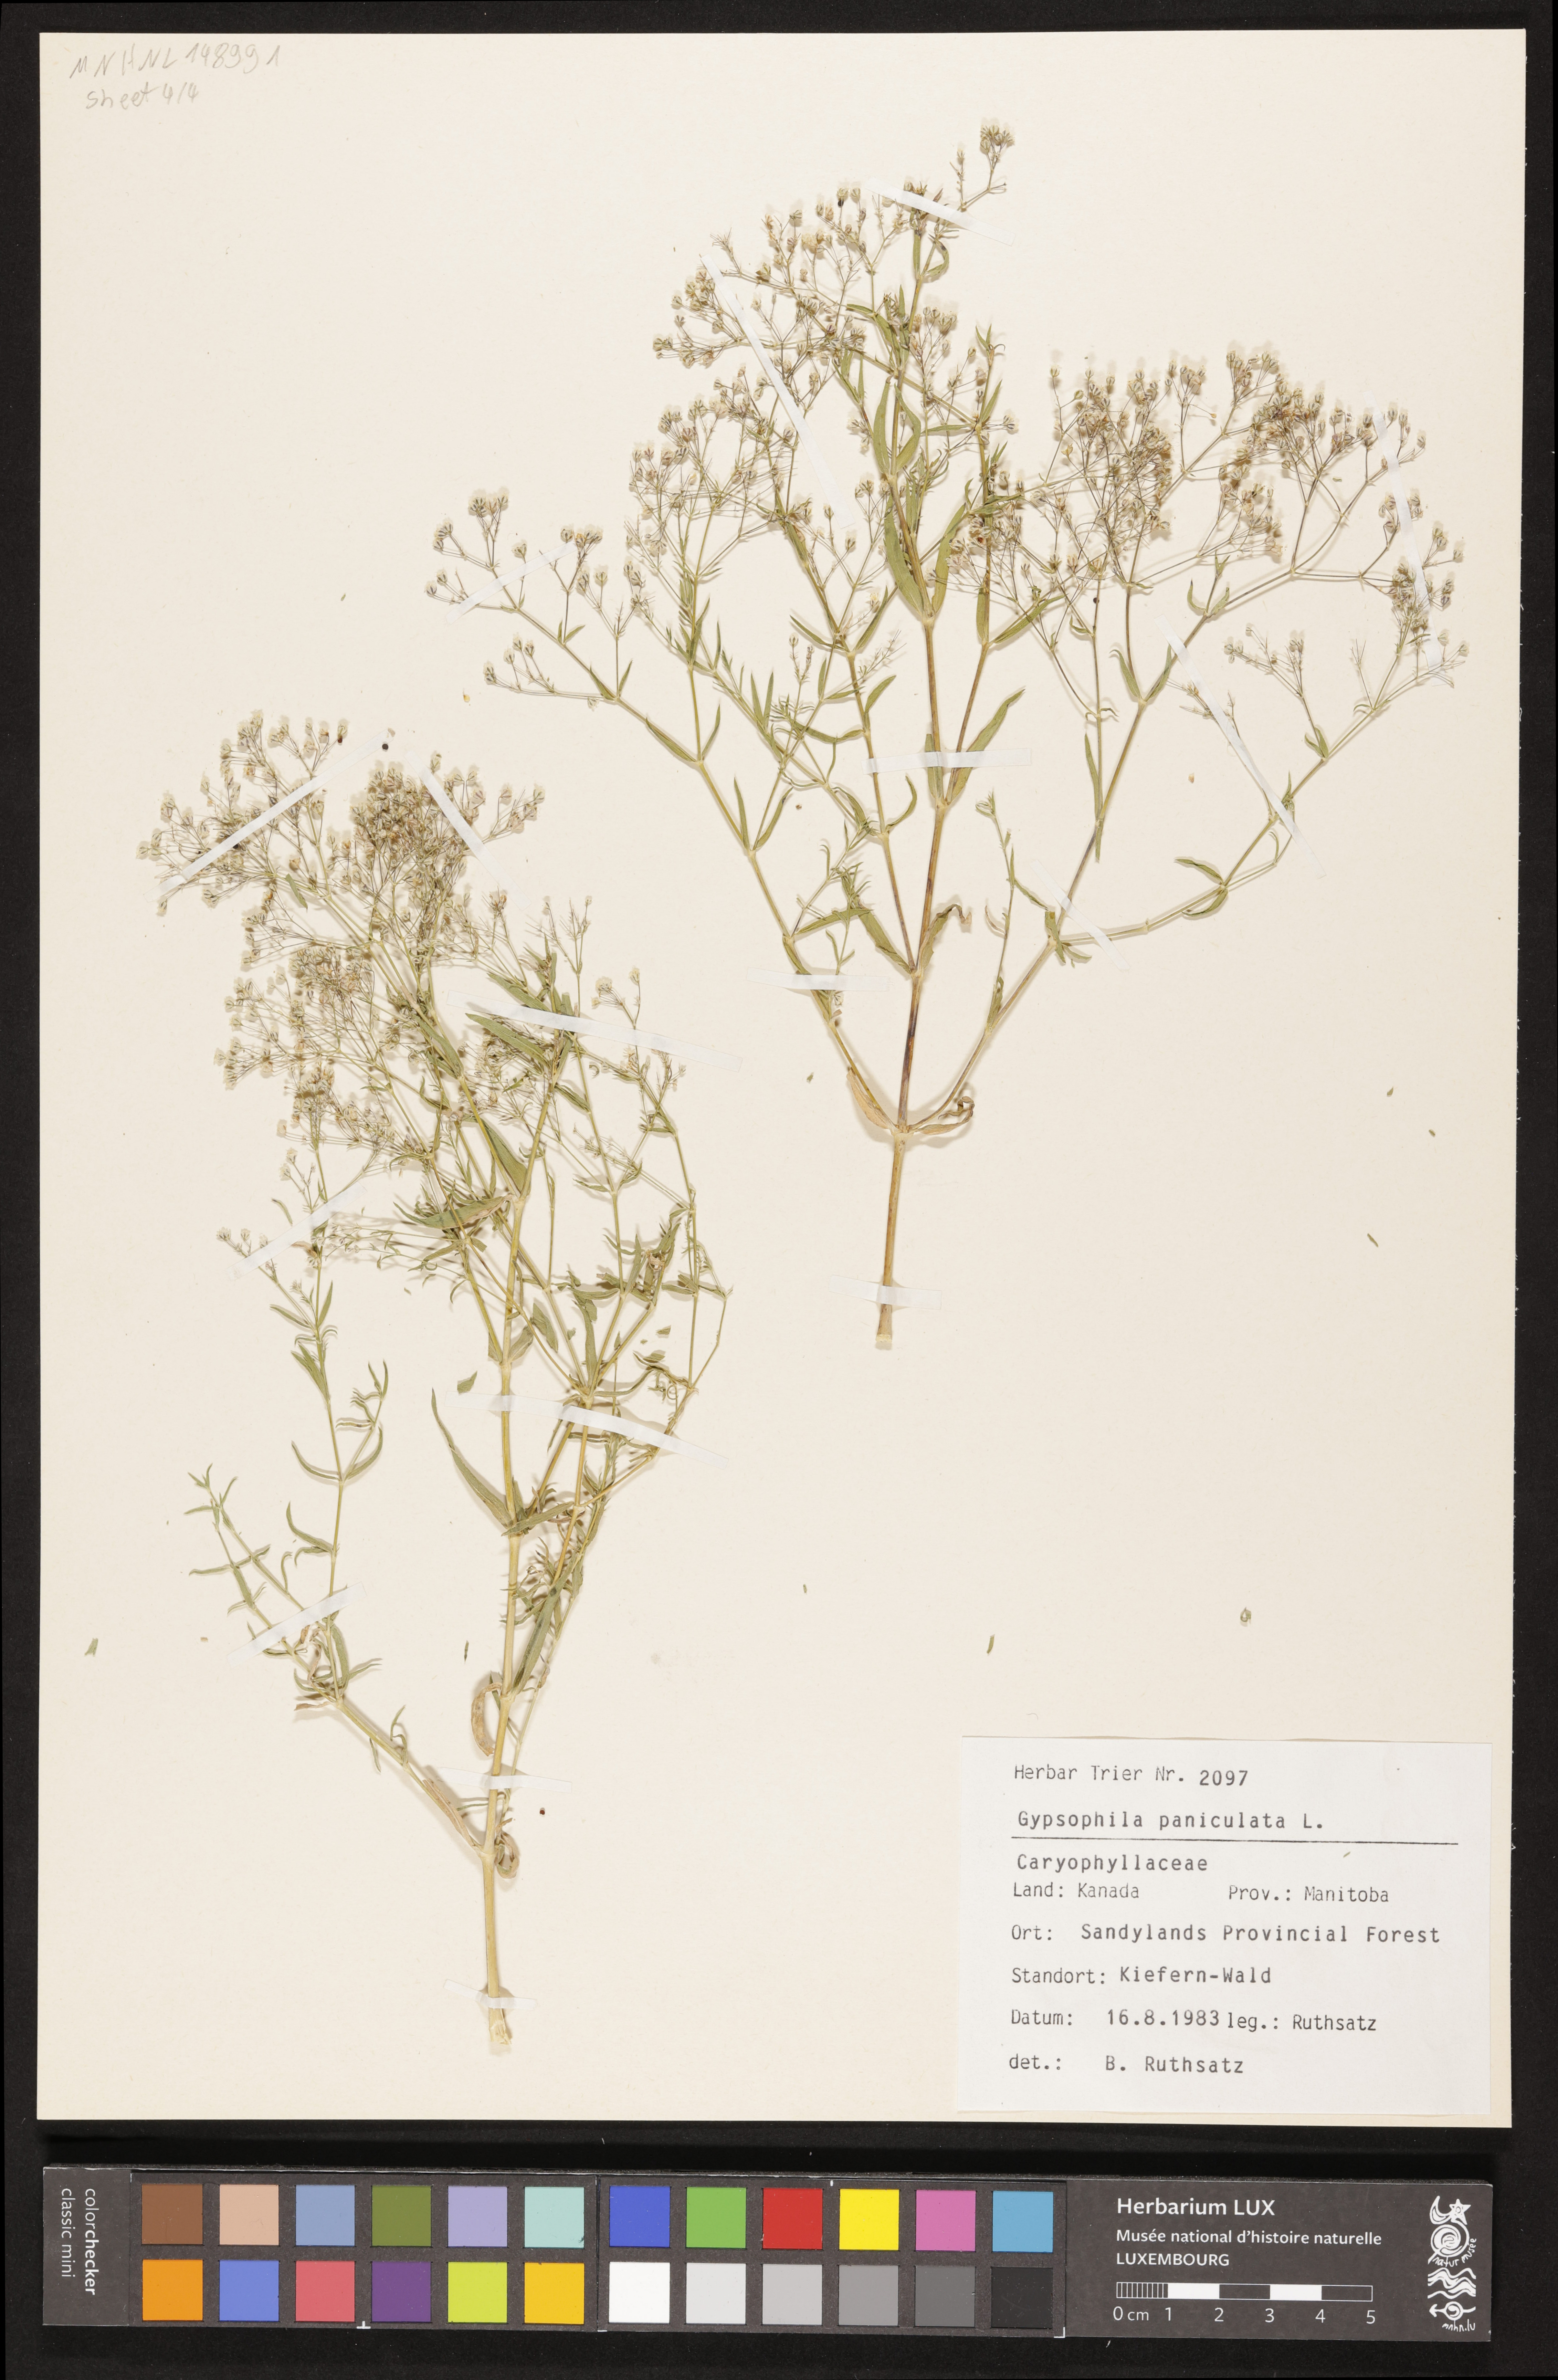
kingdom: Plantae
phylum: Tracheophyta
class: Magnoliopsida
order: Caryophyllales
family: Caryophyllaceae
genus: Gypsophila
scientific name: Gypsophila paniculata
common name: Baby's-breath
